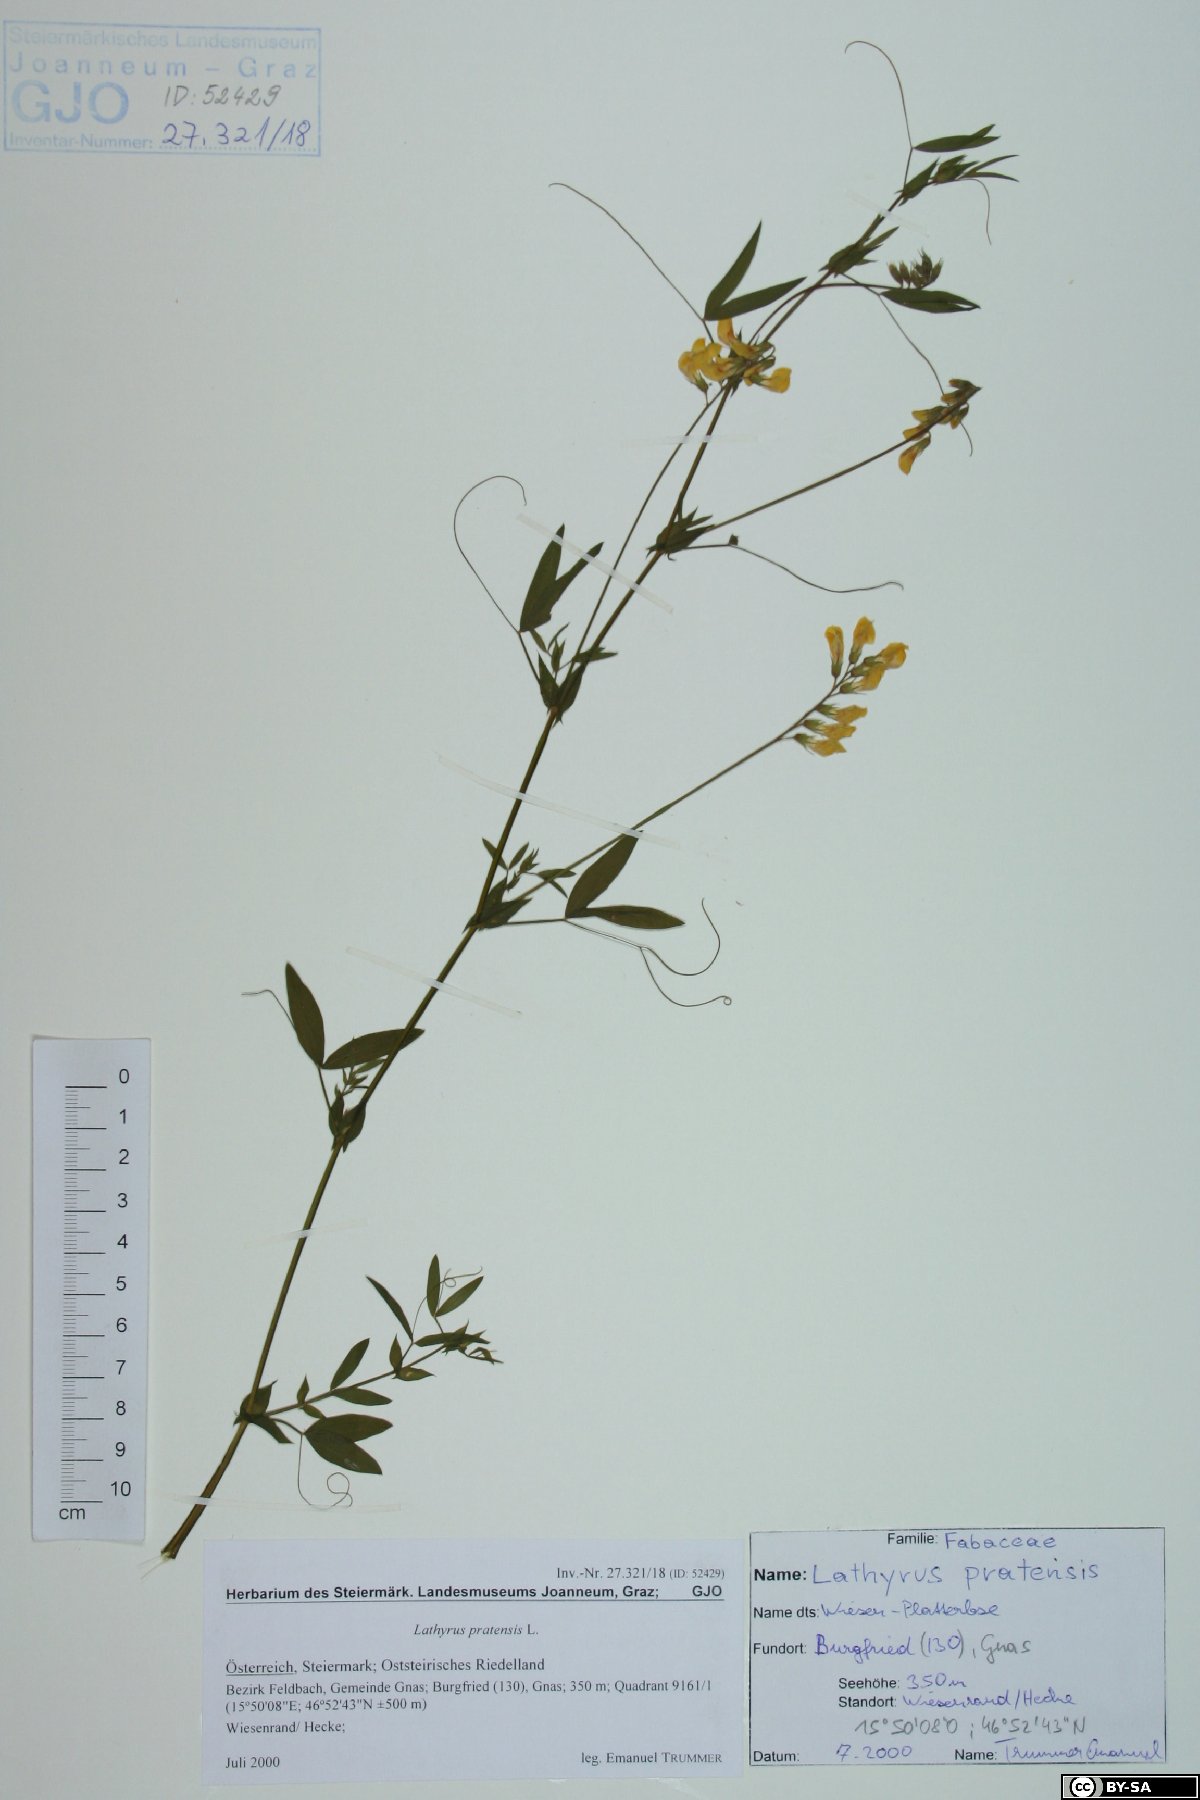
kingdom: Plantae
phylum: Tracheophyta
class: Magnoliopsida
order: Fabales
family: Fabaceae
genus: Lathyrus
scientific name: Lathyrus pratensis
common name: Meadow vetchling
